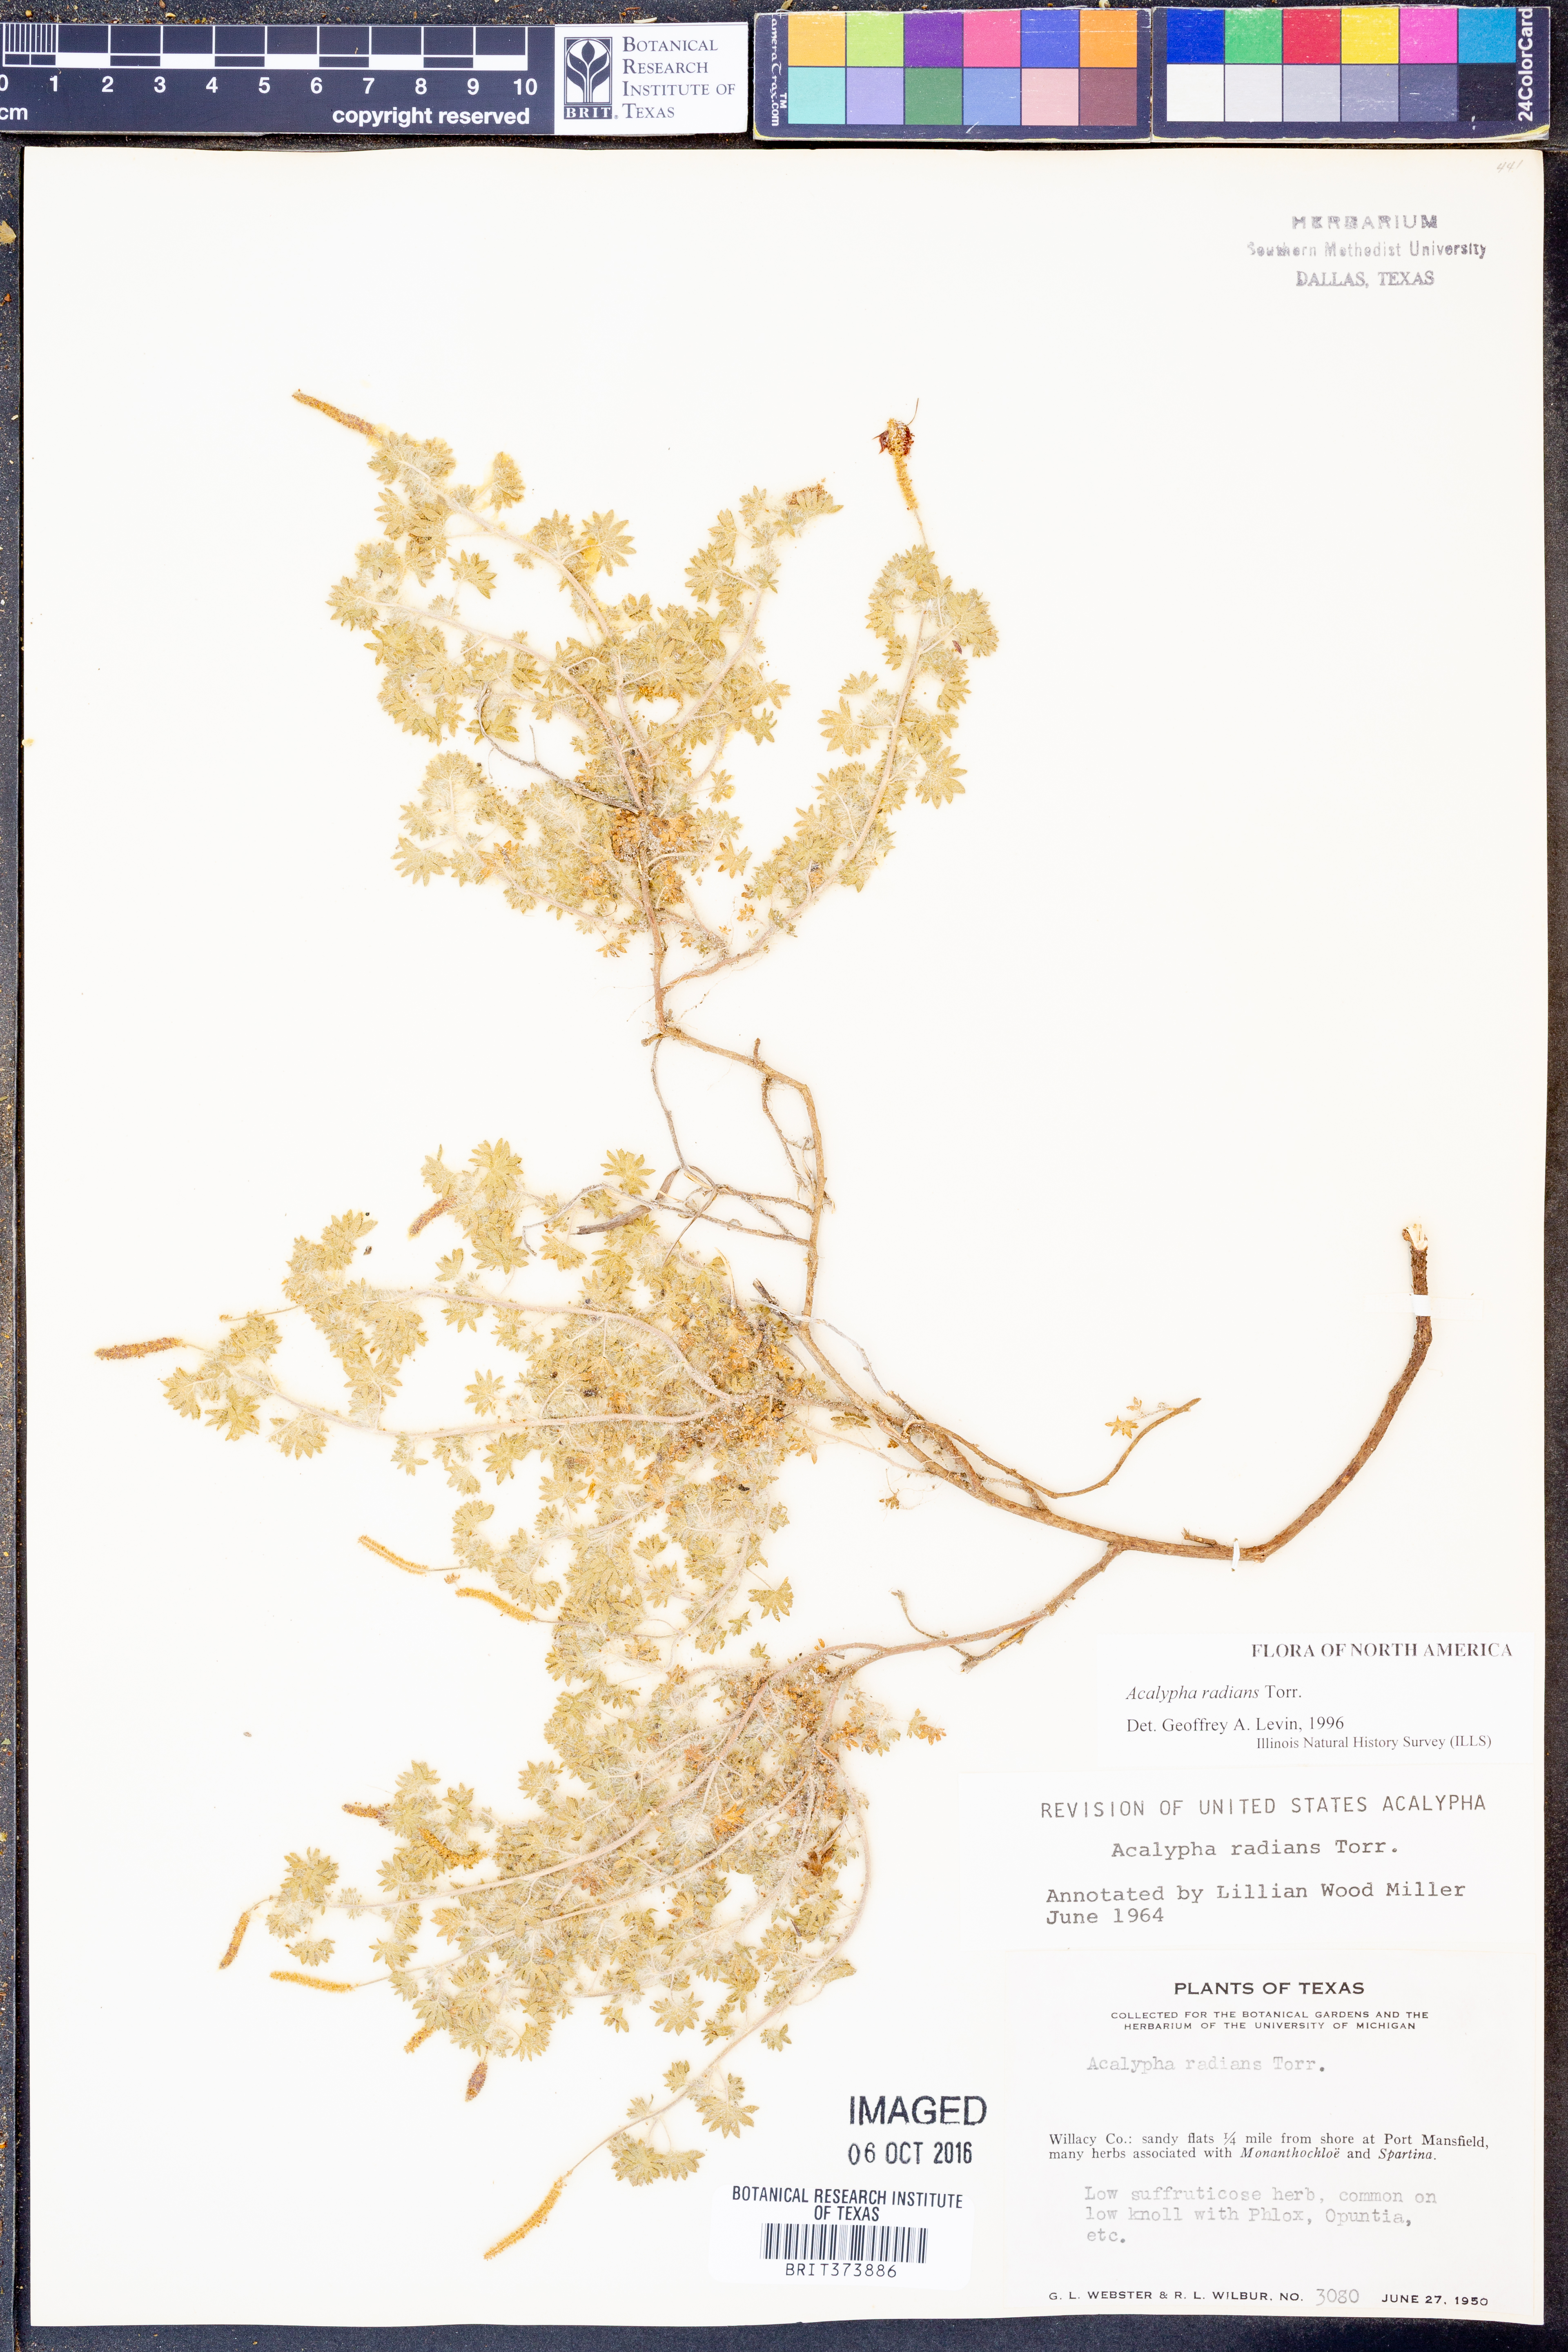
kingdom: Plantae
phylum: Tracheophyta
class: Magnoliopsida
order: Malpighiales
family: Euphorbiaceae
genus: Acalypha
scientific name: Acalypha radians
